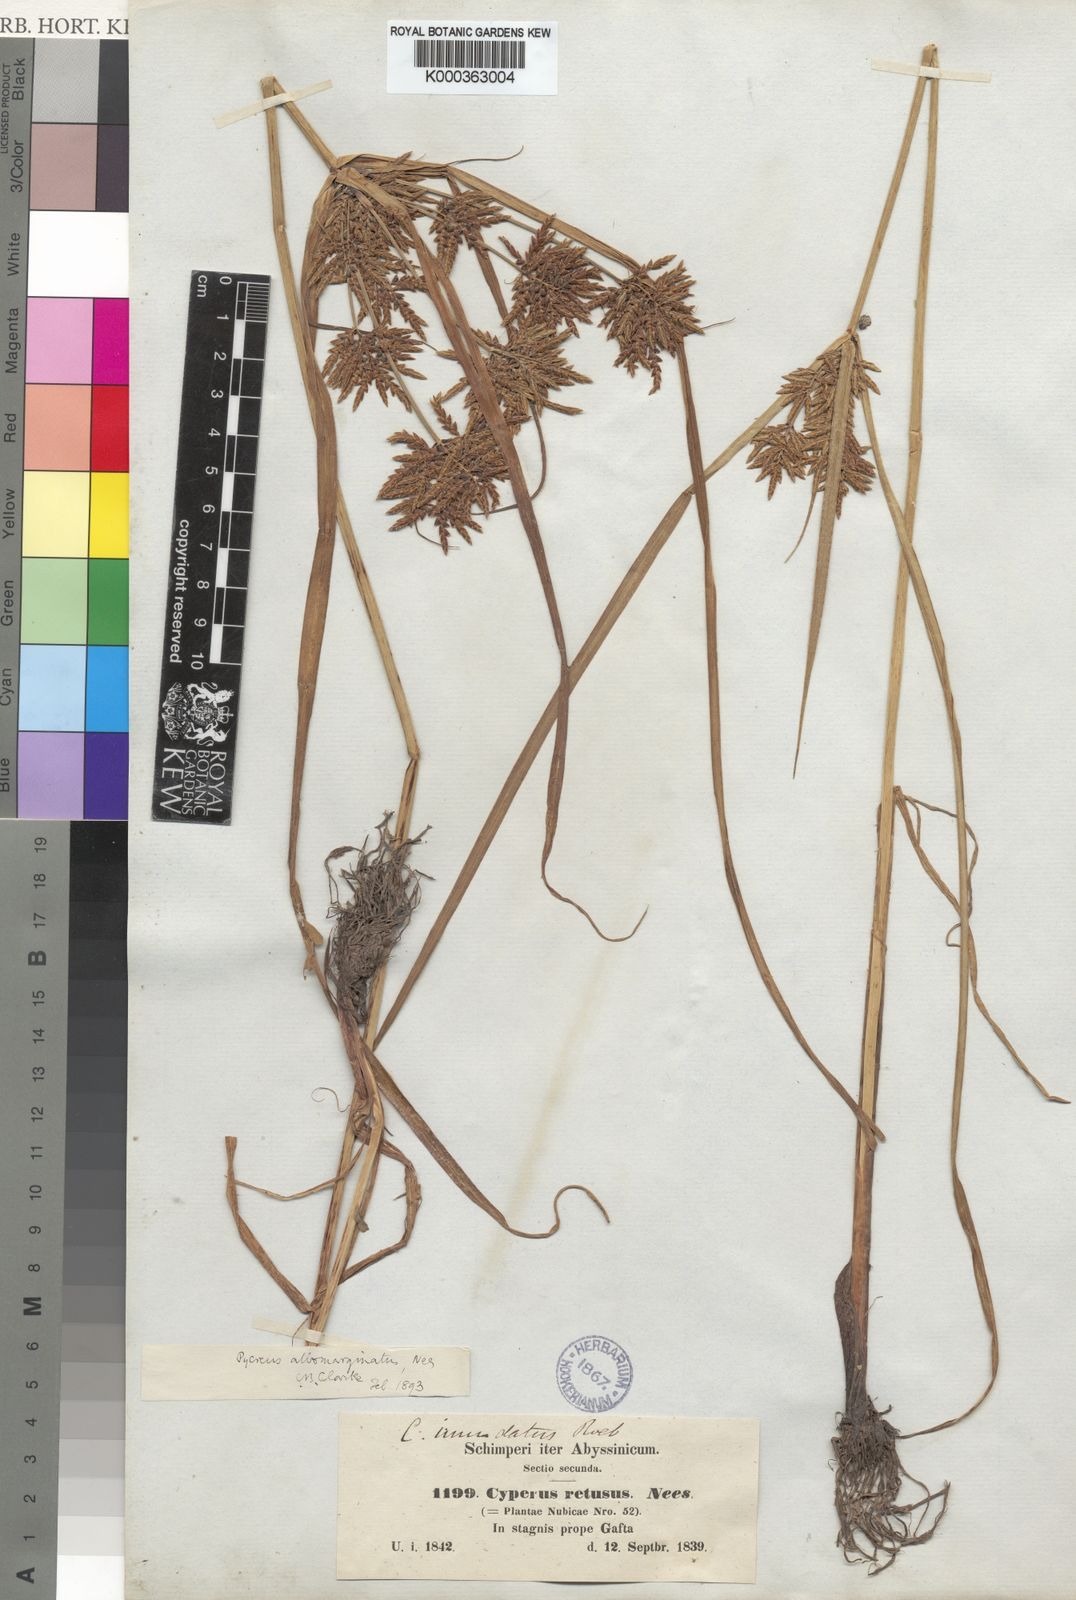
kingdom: Plantae
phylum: Tracheophyta
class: Liliopsida
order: Poales
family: Cyperaceae
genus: Cyperus
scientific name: Cyperus macrostachyos
